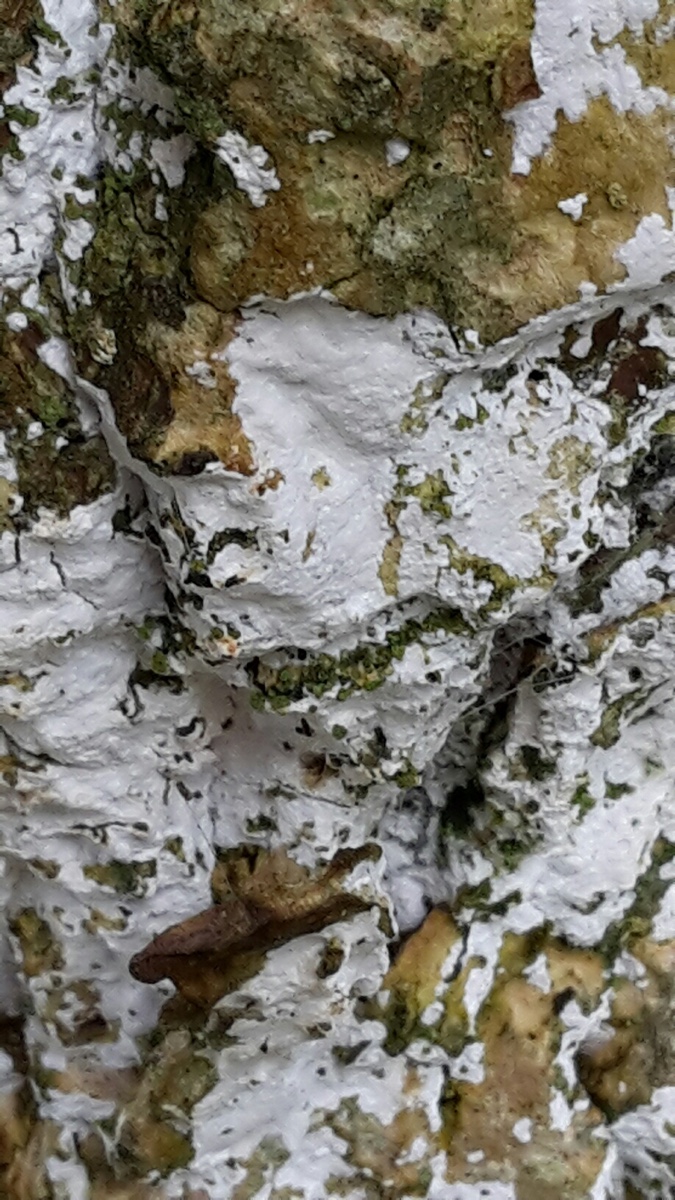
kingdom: Fungi
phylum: Basidiomycota
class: Agaricomycetes
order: Corticiales
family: Corticiaceae
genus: Lyomyces
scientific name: Lyomyces sambuci
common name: almindelig hyldehinde
